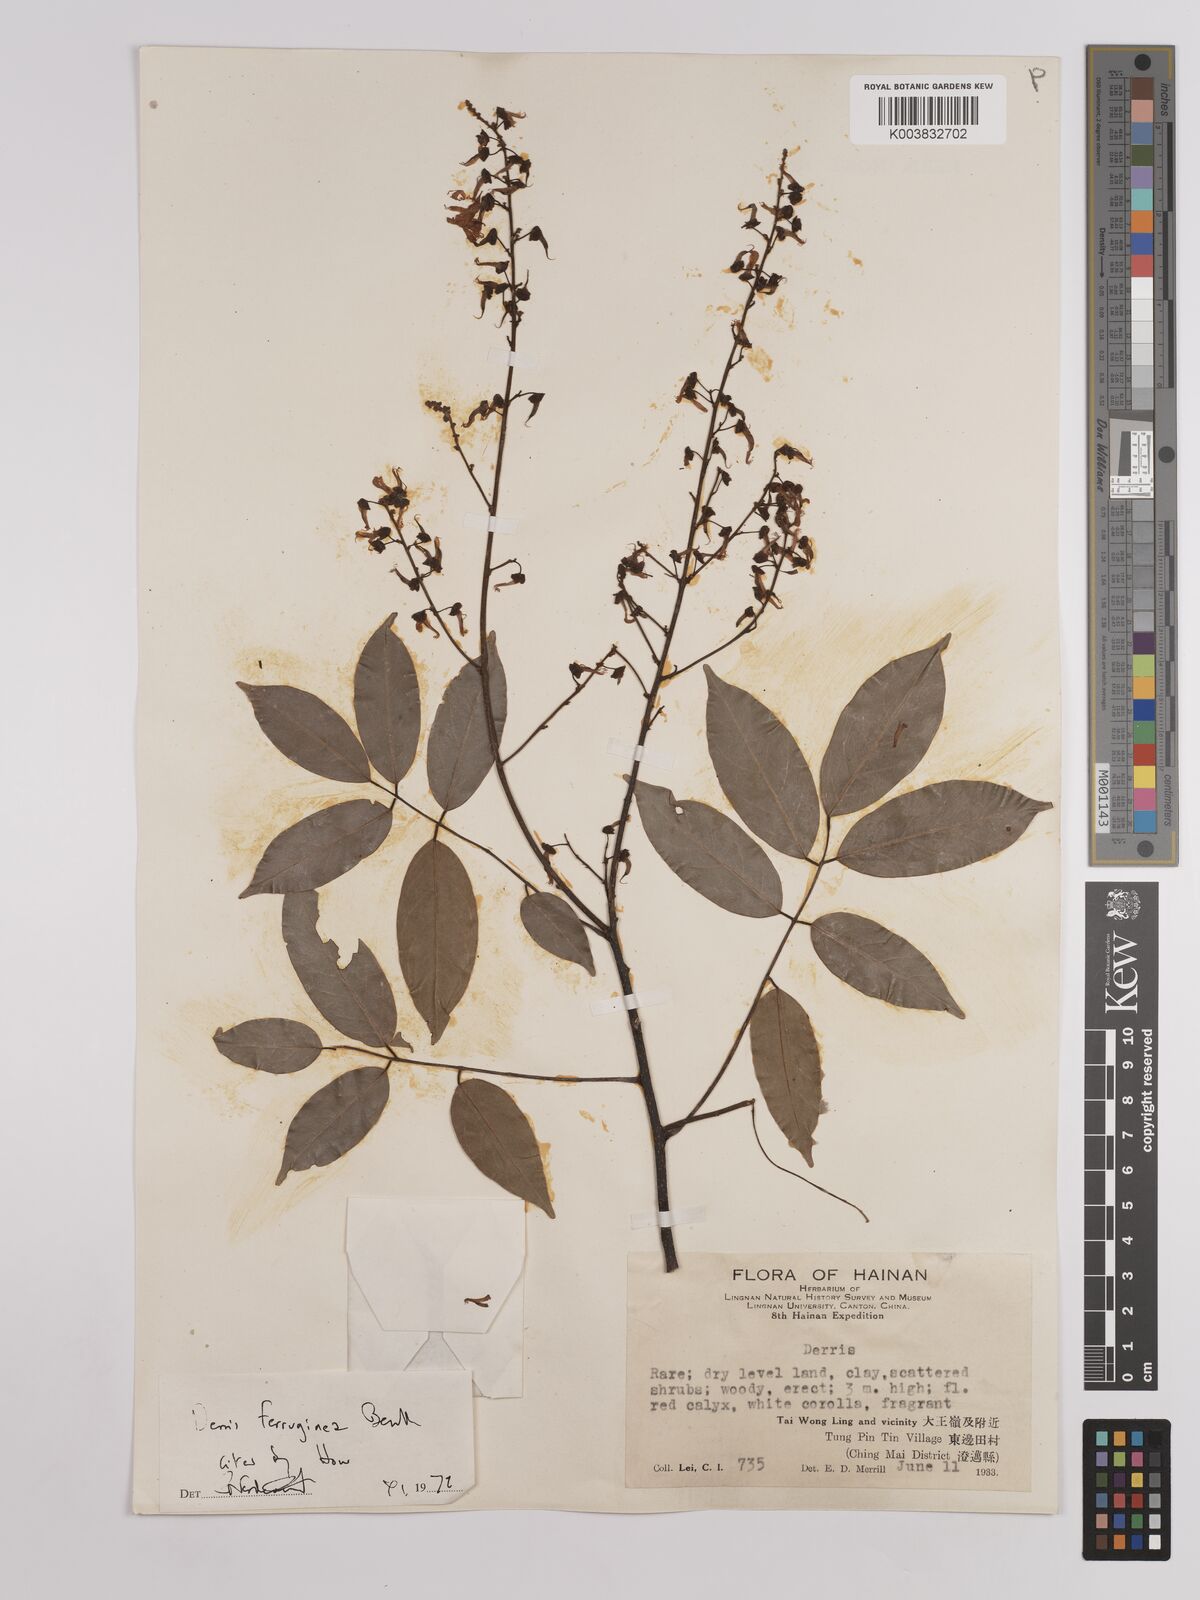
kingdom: Plantae
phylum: Tracheophyta
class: Magnoliopsida
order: Fabales
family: Fabaceae
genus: Derris
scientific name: Derris ferruginea
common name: Indian tubaroot
